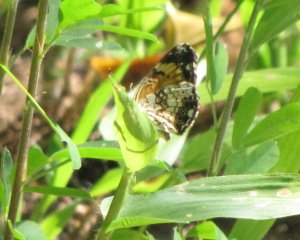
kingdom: Animalia
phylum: Arthropoda
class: Insecta
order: Lepidoptera
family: Nymphalidae
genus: Chlosyne
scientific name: Chlosyne nycteis
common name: Silvery Checkerspot
